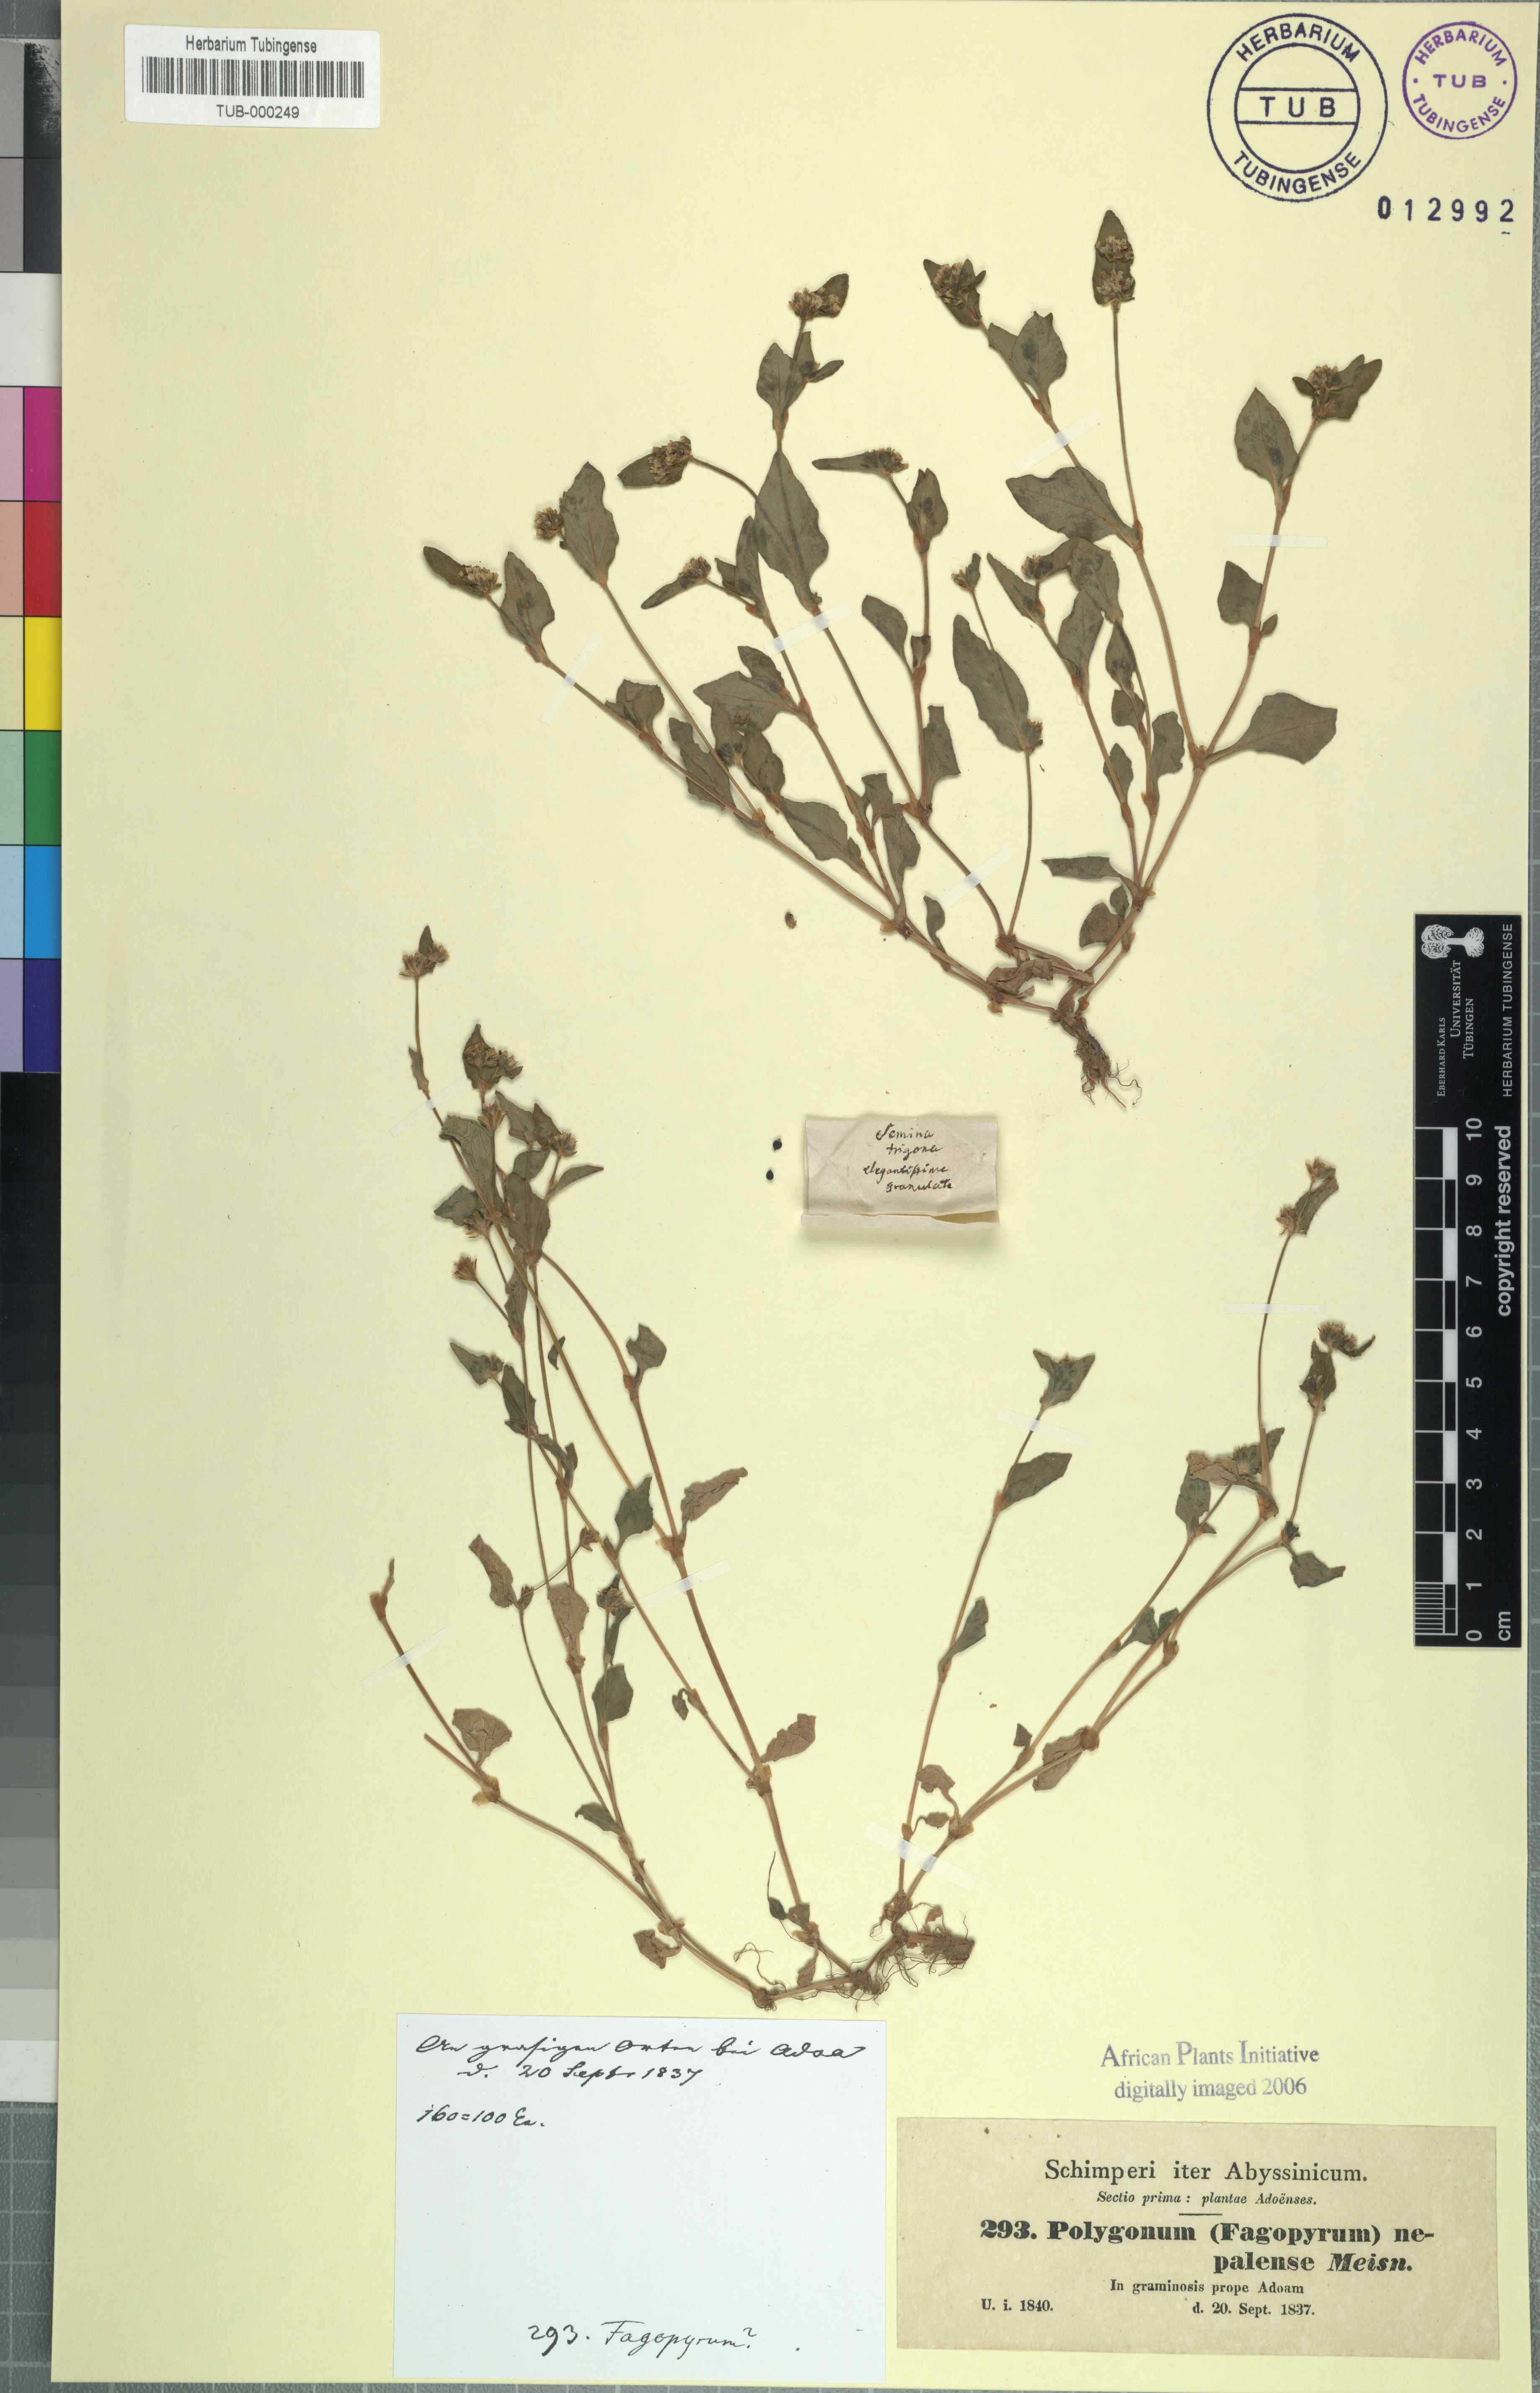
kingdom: Plantae
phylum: Tracheophyta
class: Magnoliopsida
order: Caryophyllales
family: Polygonaceae
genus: Persicaria
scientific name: Persicaria nepalensis
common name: Nepal persicaria
